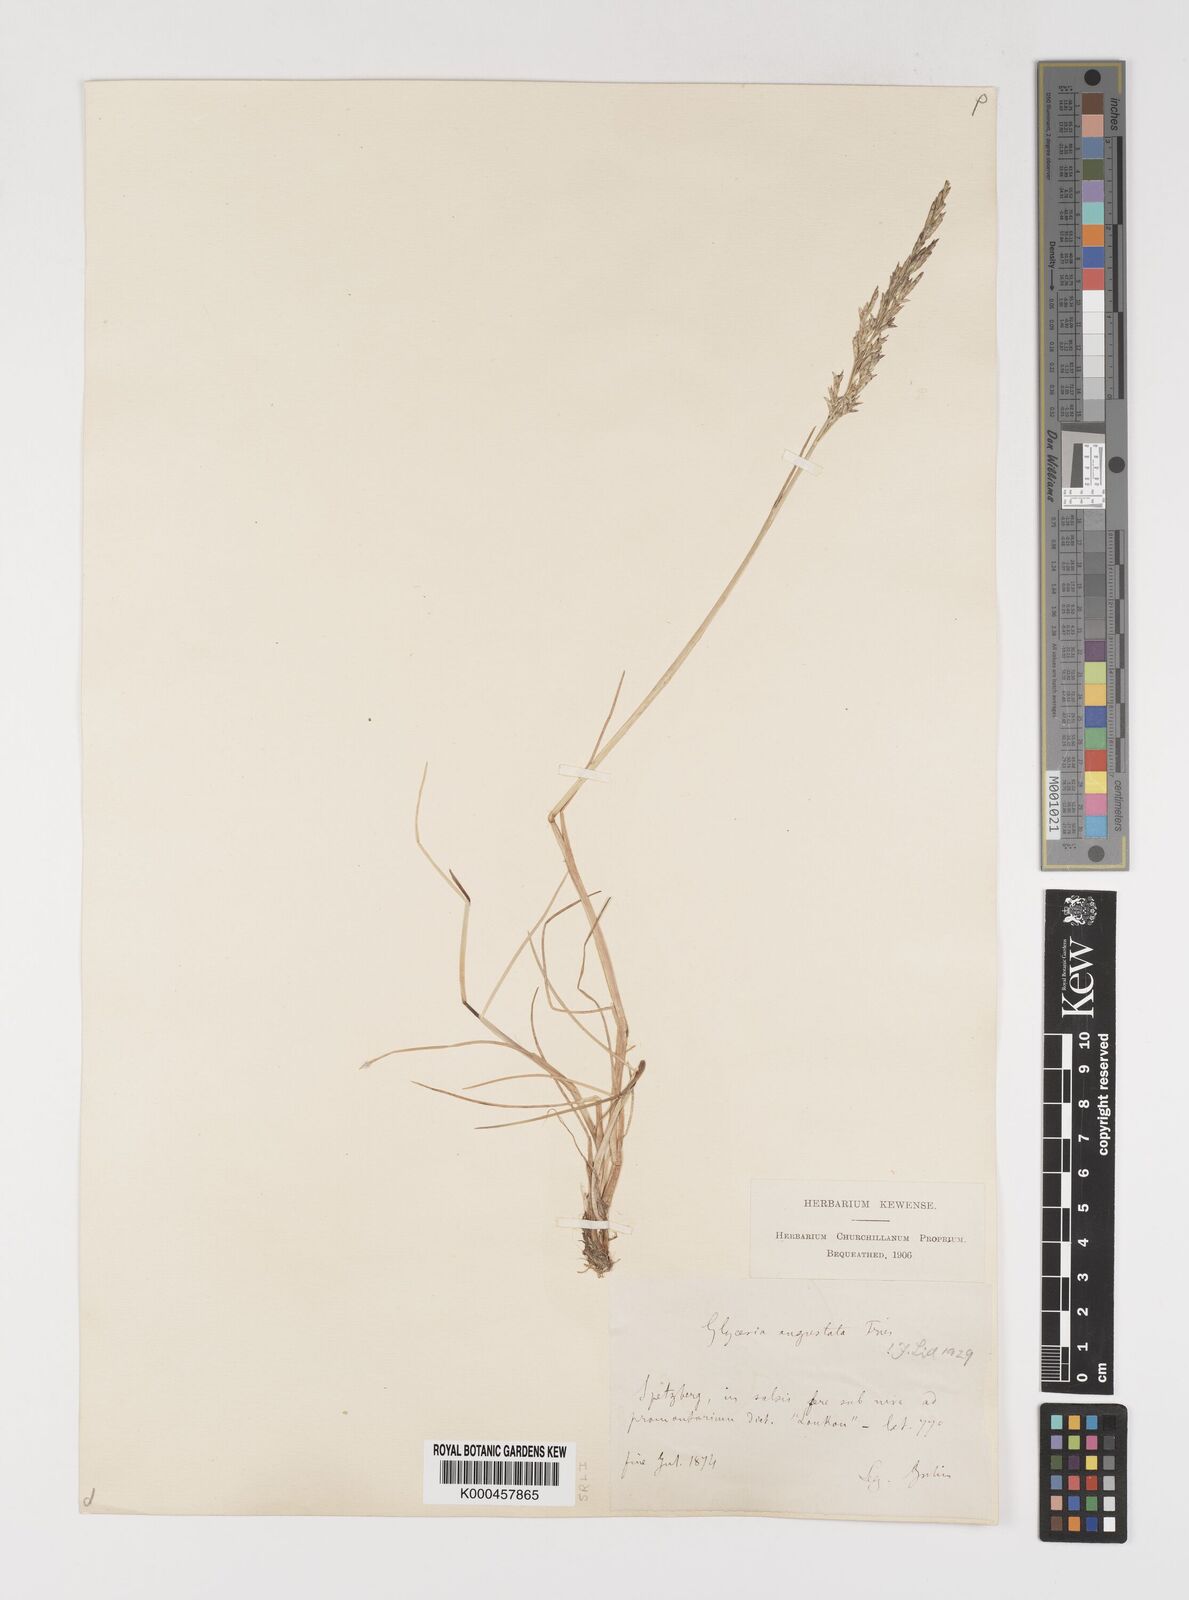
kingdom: Plantae
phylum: Tracheophyta
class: Liliopsida
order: Poales
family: Poaceae
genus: Puccinellia
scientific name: Puccinellia angustata
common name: Narrow alkaligrass
